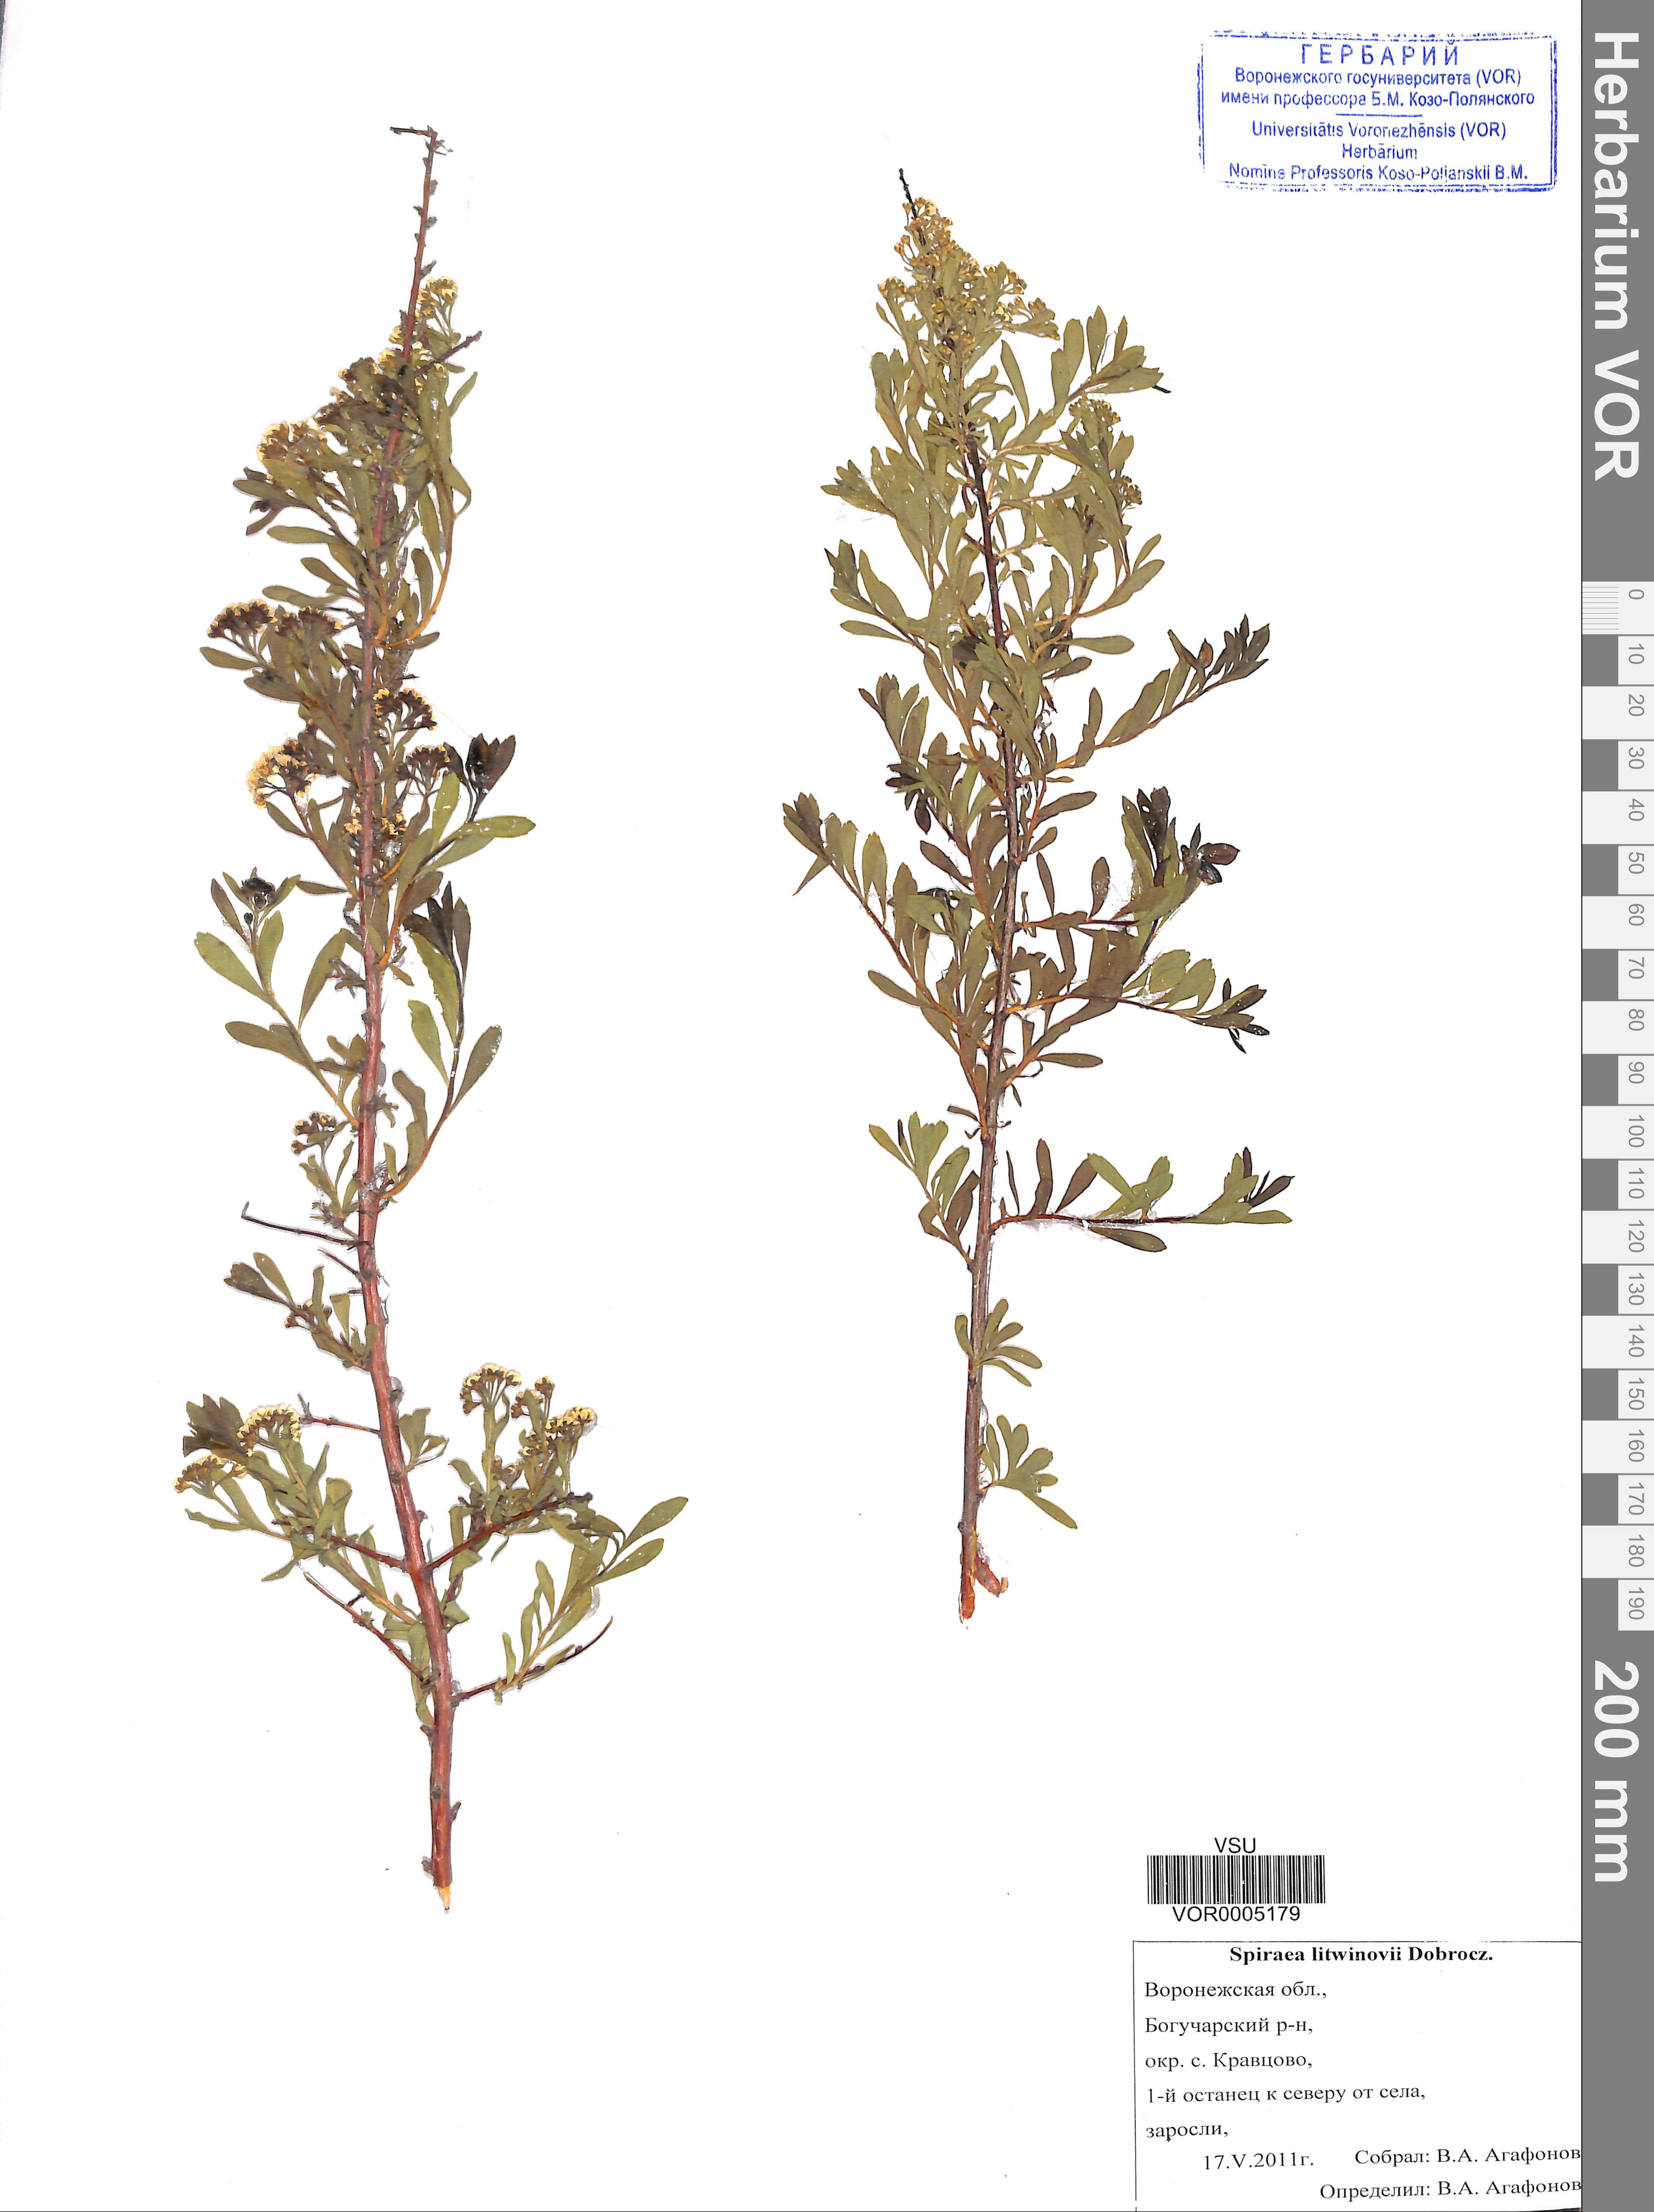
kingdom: Plantae
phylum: Tracheophyta
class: Magnoliopsida
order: Rosales
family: Rosaceae
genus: Spiraea
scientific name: Spiraea crenata
